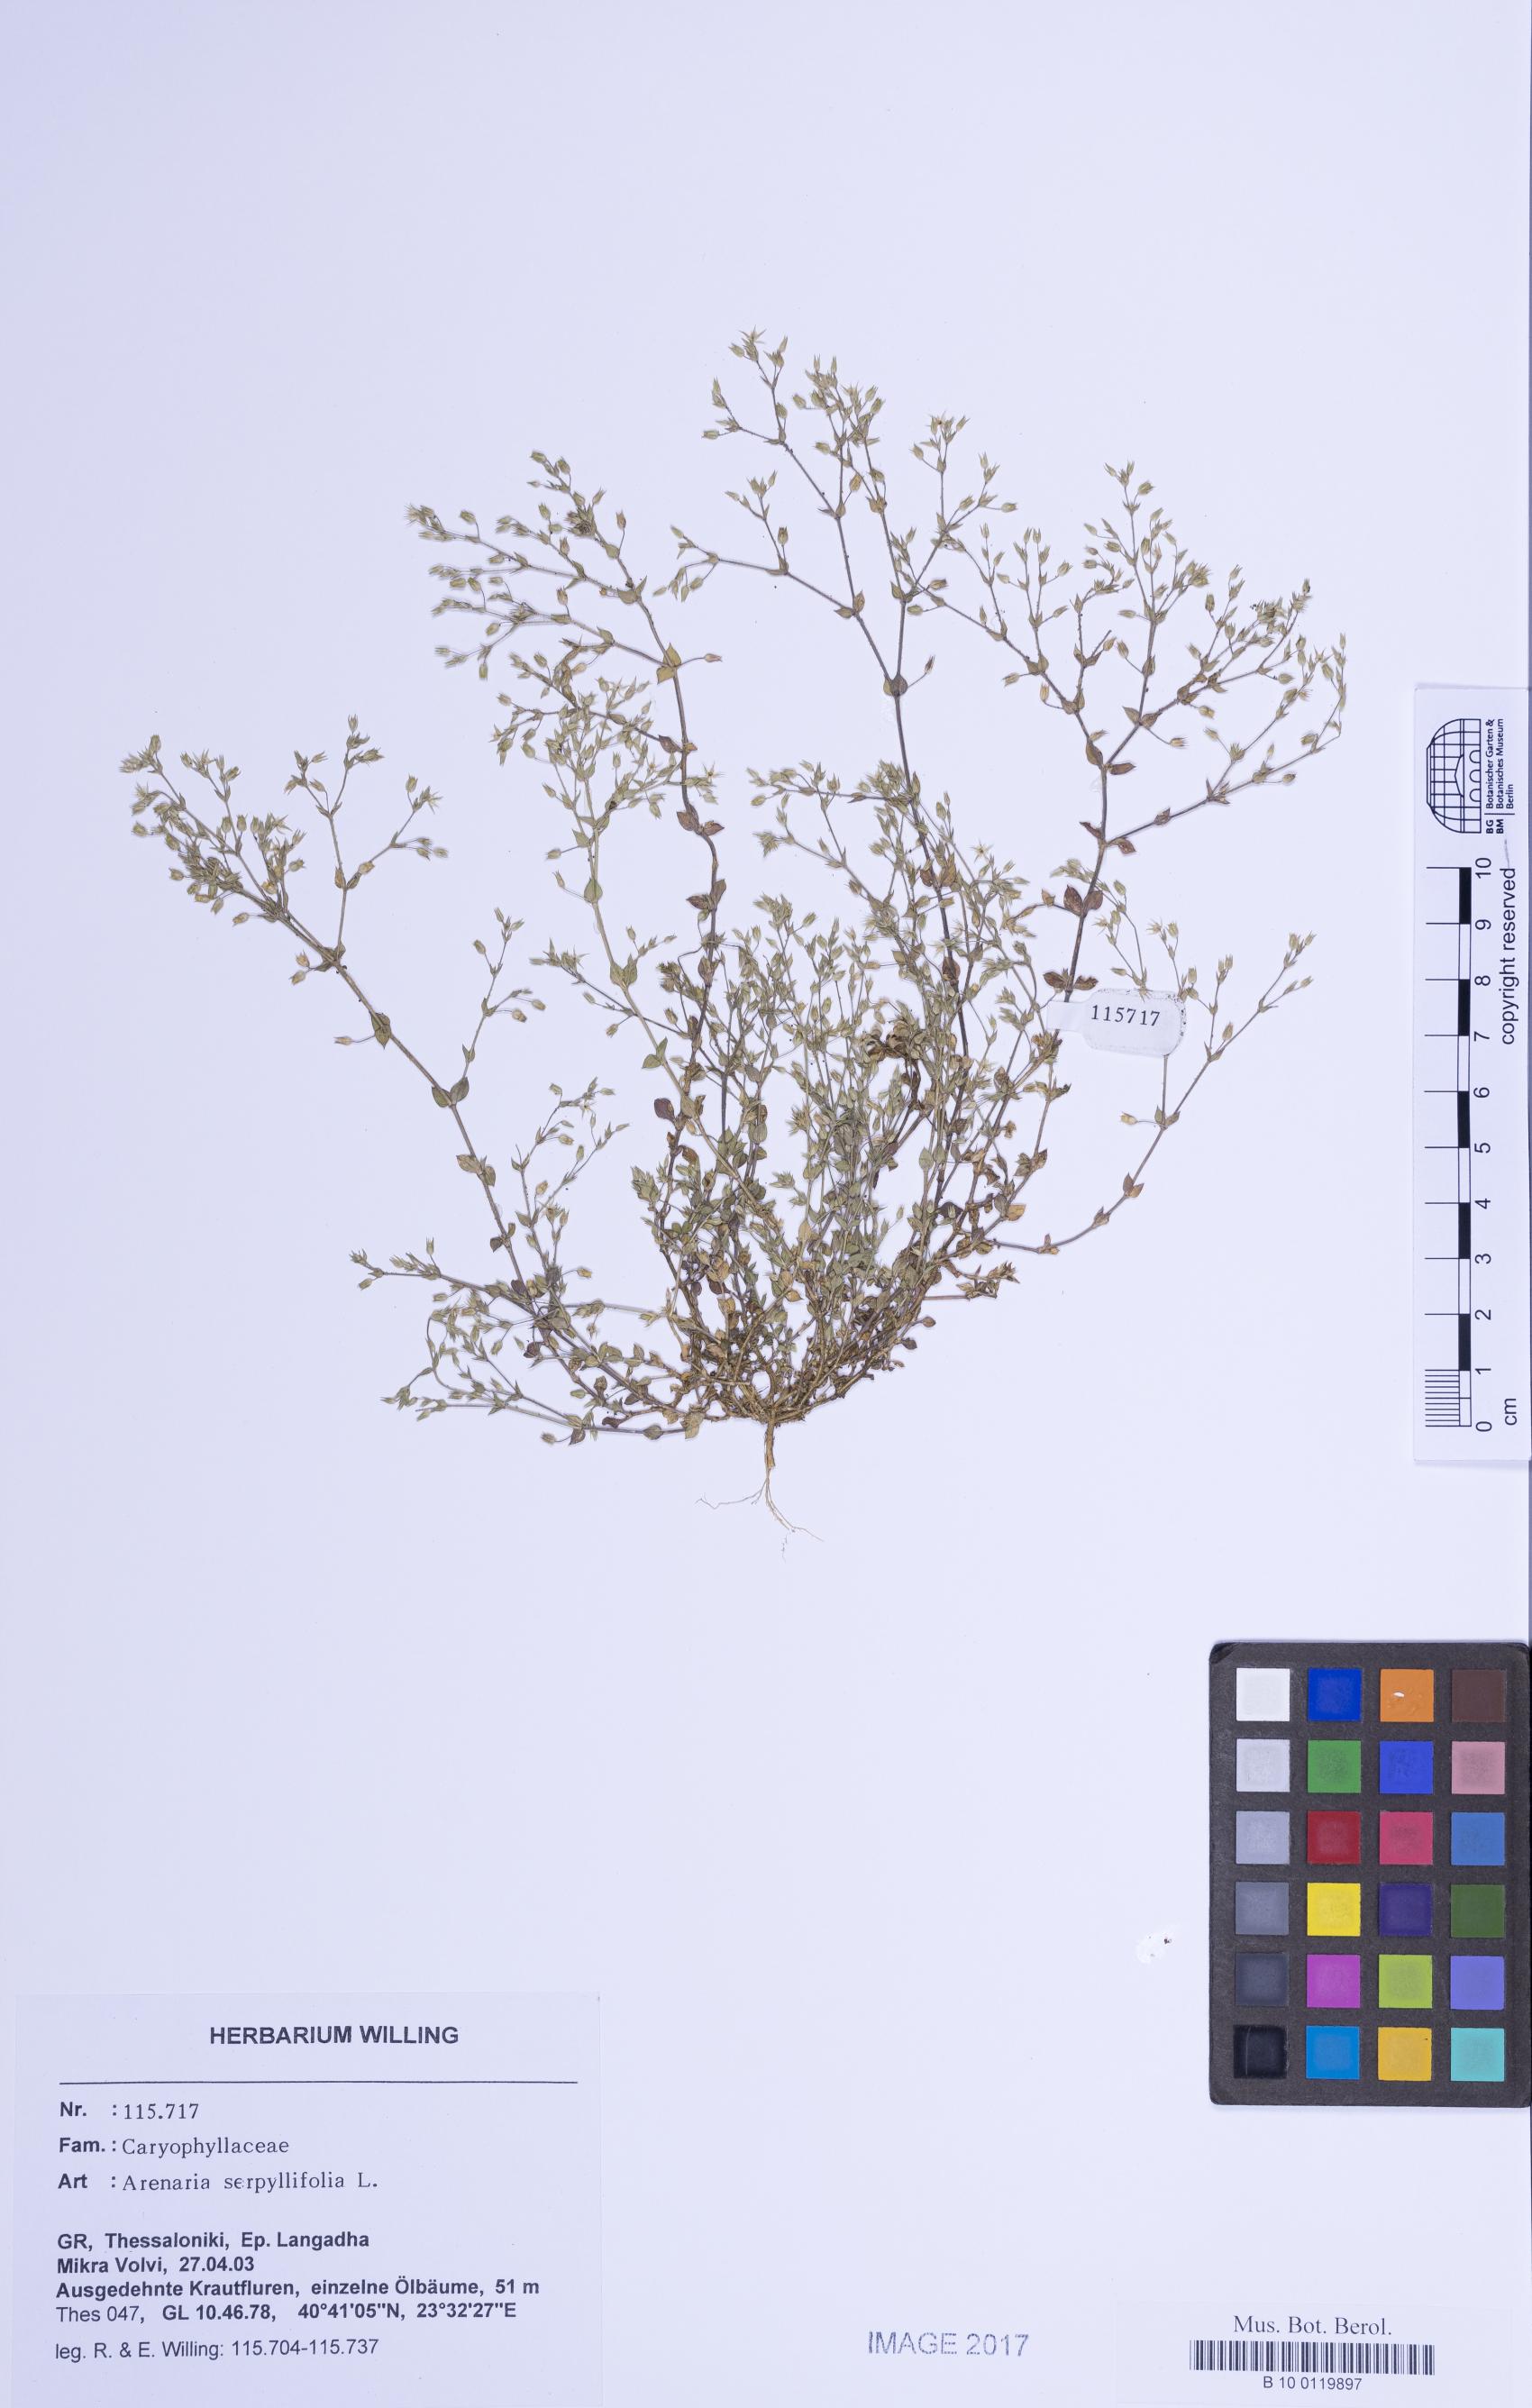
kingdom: Plantae
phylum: Tracheophyta
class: Magnoliopsida
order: Caryophyllales
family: Caryophyllaceae
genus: Arenaria
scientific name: Arenaria serpyllifolia
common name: Thyme-leaved sandwort
